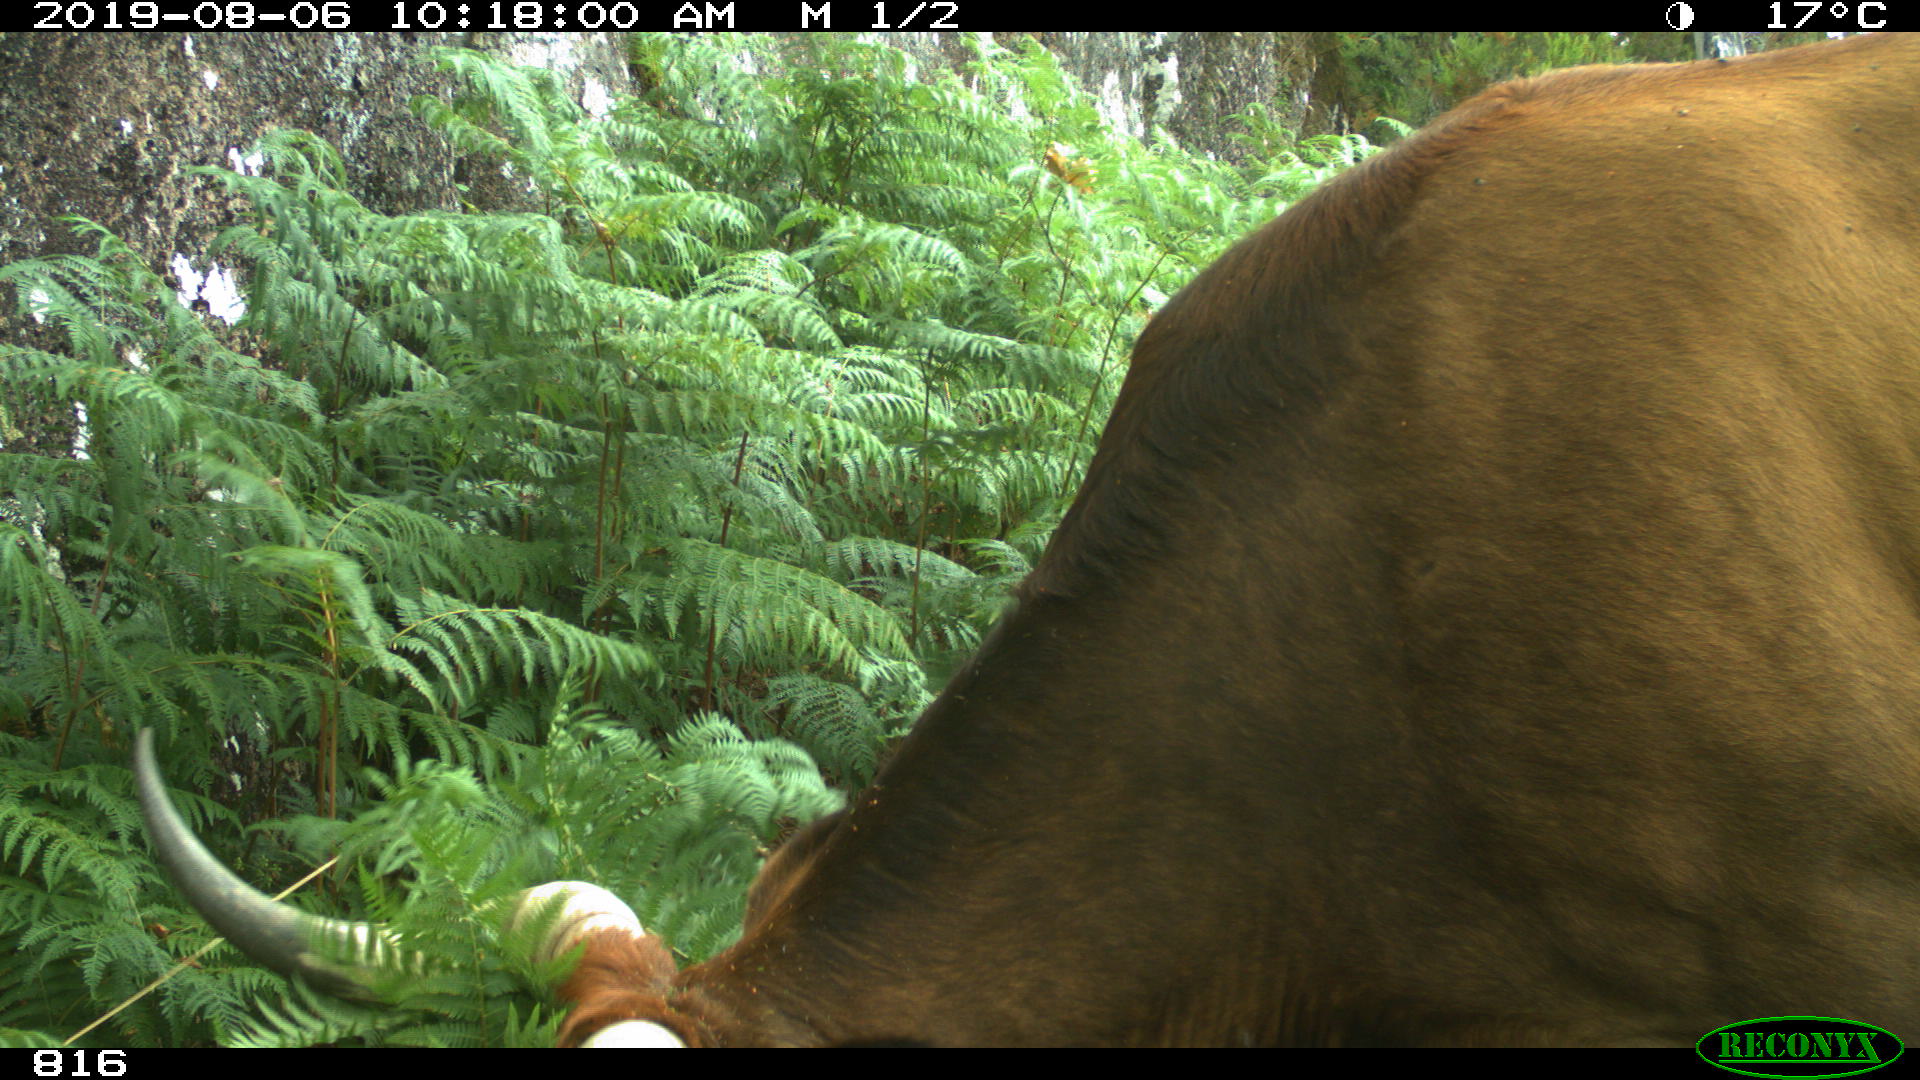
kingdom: Animalia
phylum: Chordata
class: Mammalia
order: Artiodactyla
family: Bovidae
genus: Bos
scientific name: Bos taurus
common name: Domesticated cattle
